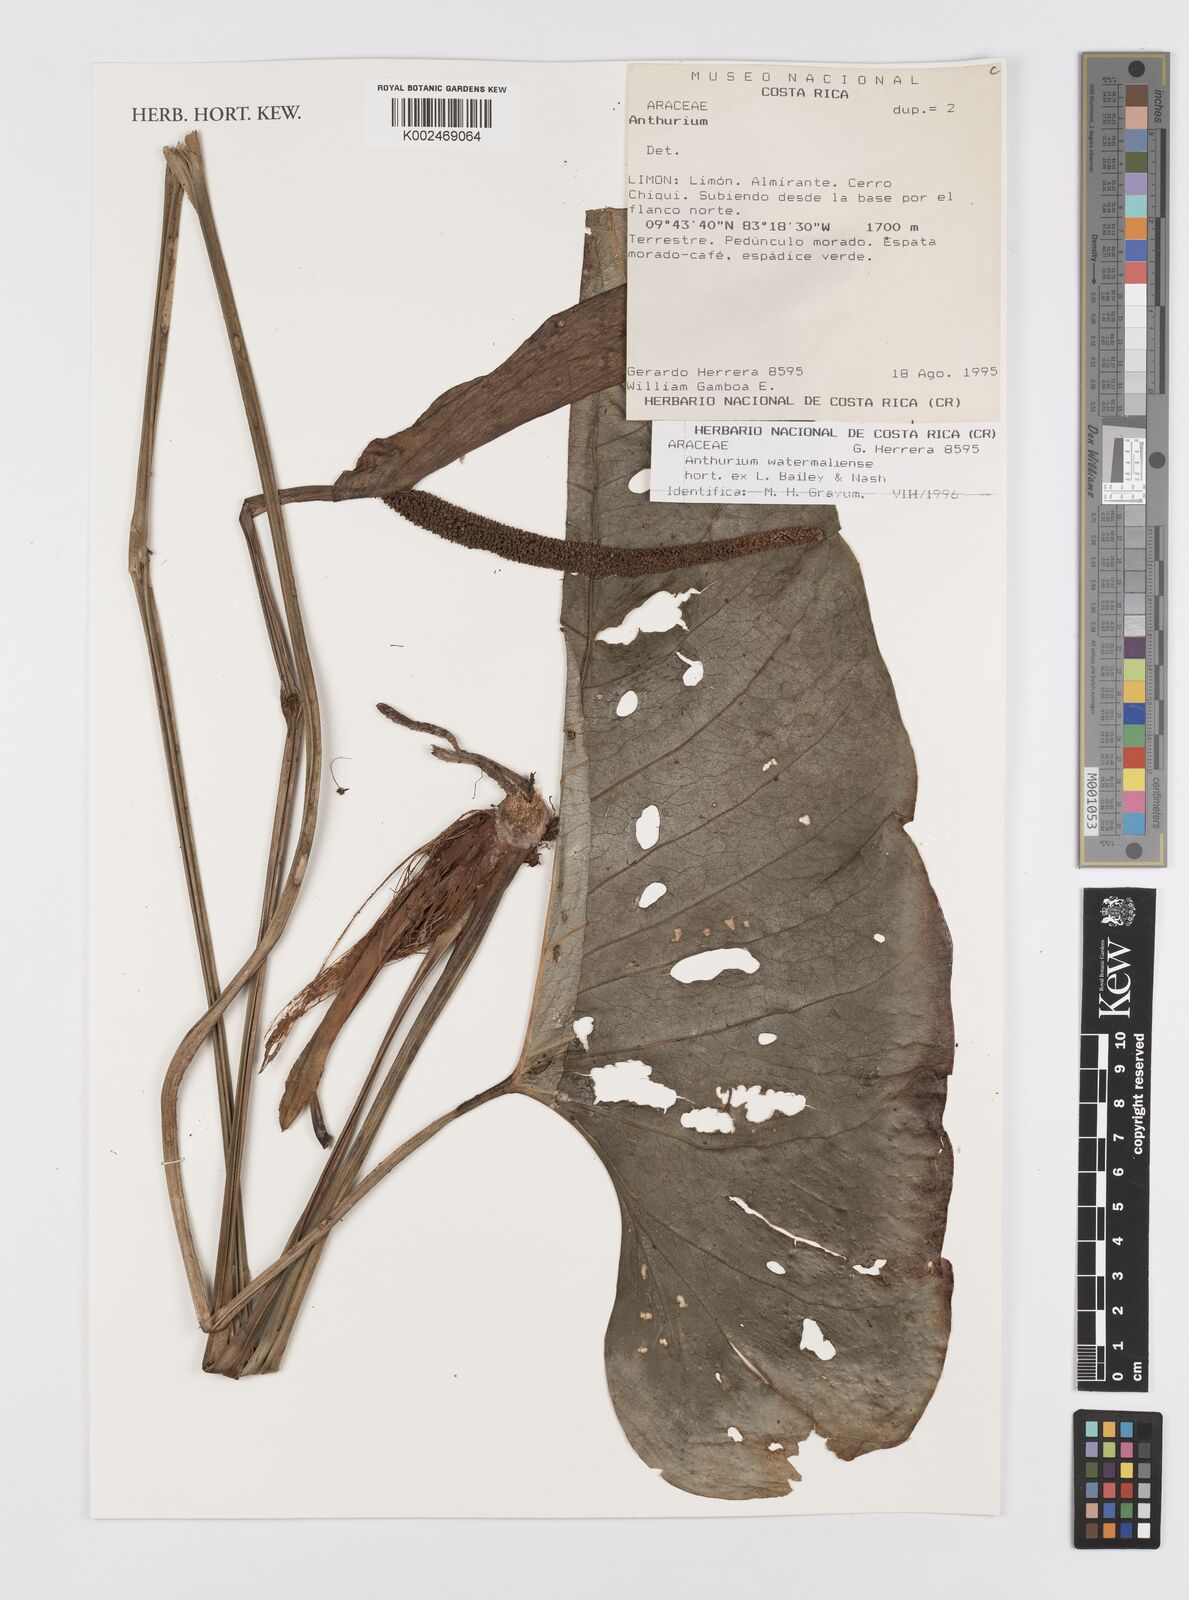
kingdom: Plantae
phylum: Tracheophyta
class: Liliopsida
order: Alismatales
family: Araceae
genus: Anthurium
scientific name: Anthurium watermaliense
